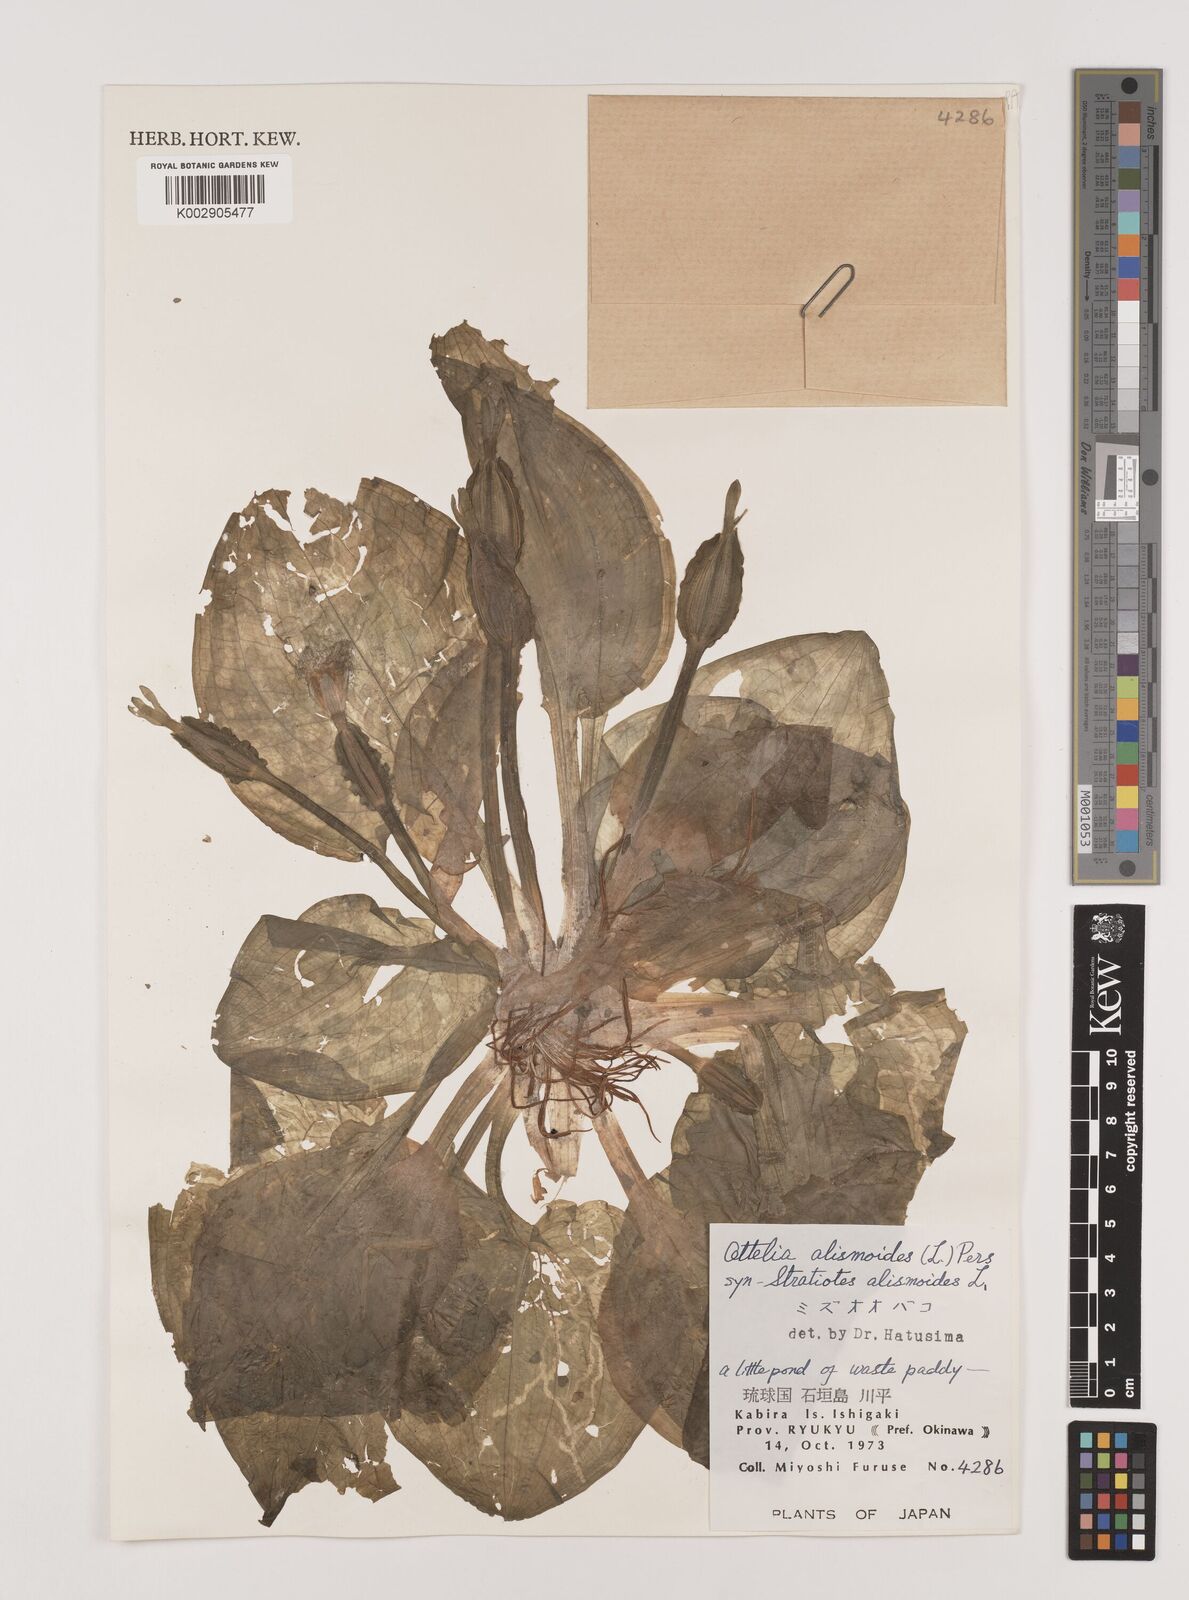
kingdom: Plantae
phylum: Tracheophyta
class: Liliopsida
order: Alismatales
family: Hydrocharitaceae
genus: Ottelia
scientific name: Ottelia alismoides
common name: Duck-lettuce
